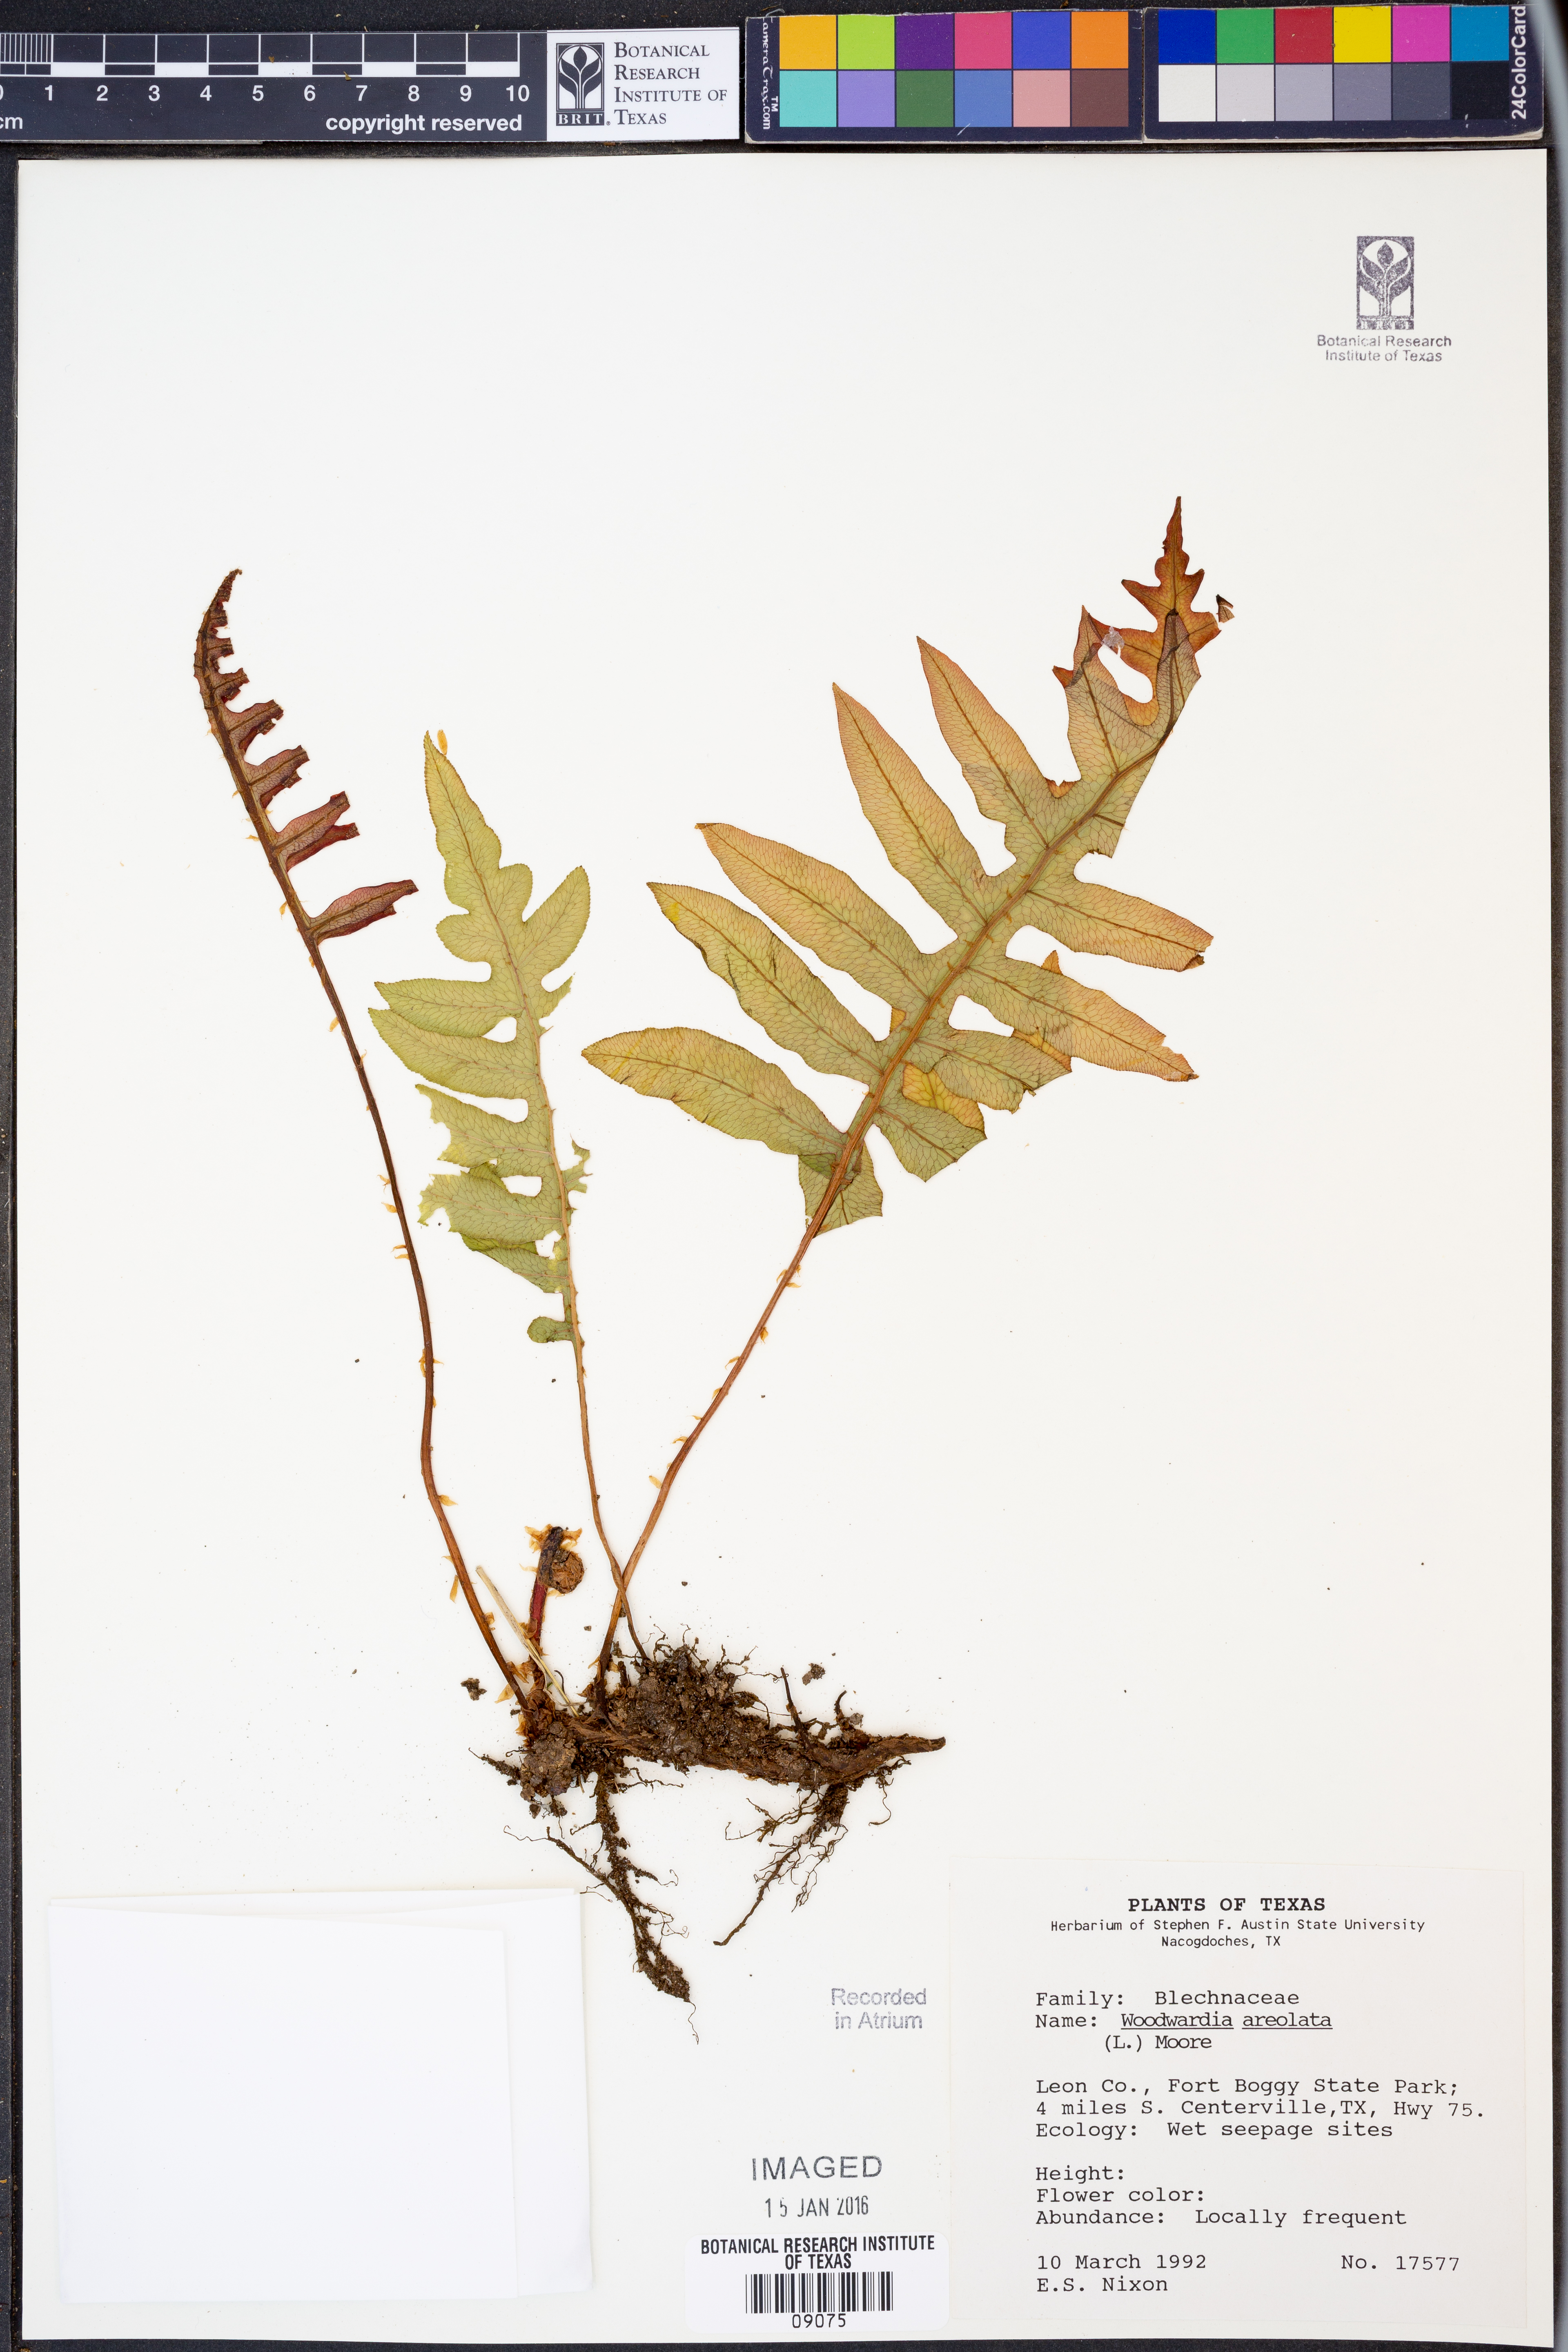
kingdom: Plantae
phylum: Tracheophyta
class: Polypodiopsida
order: Polypodiales
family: Blechnaceae
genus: Lorinseria
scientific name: Lorinseria areolata
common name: Dwarf chain fern
